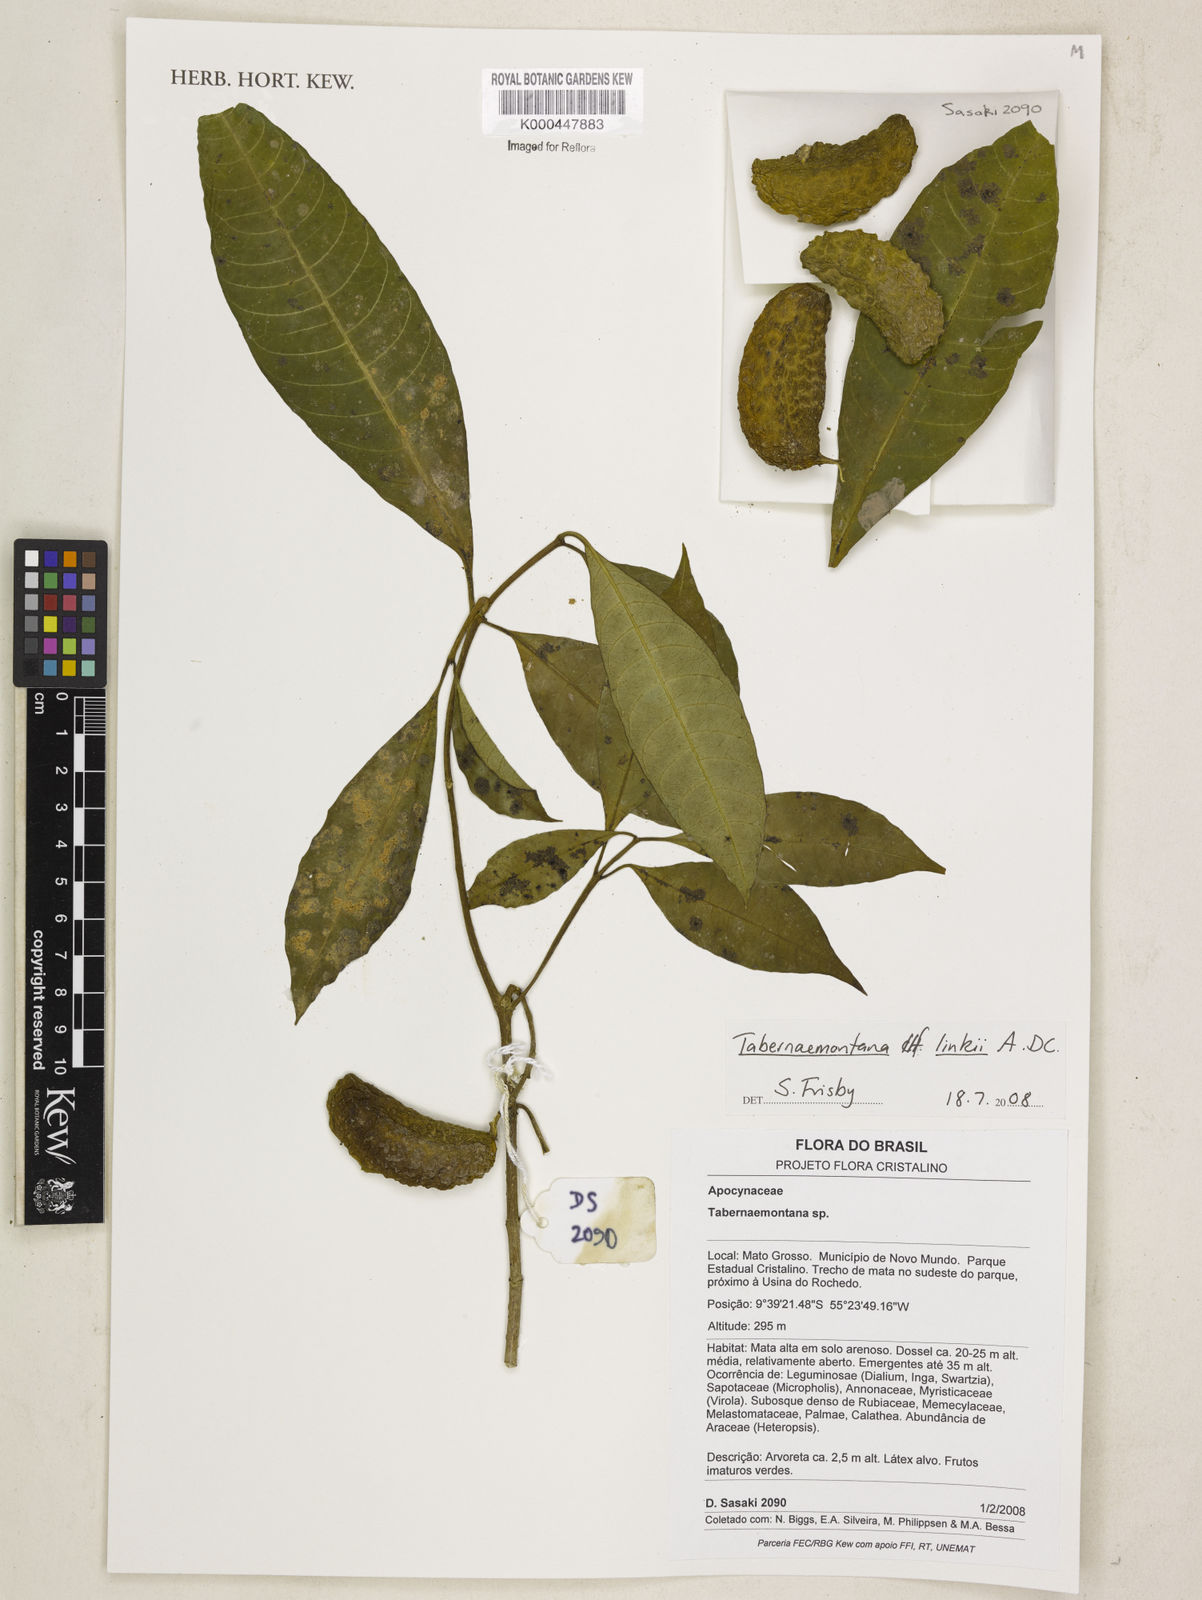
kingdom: Plantae
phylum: Tracheophyta
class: Magnoliopsida
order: Gentianales
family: Apocynaceae
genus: Tabernaemontana
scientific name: Tabernaemontana linkii
